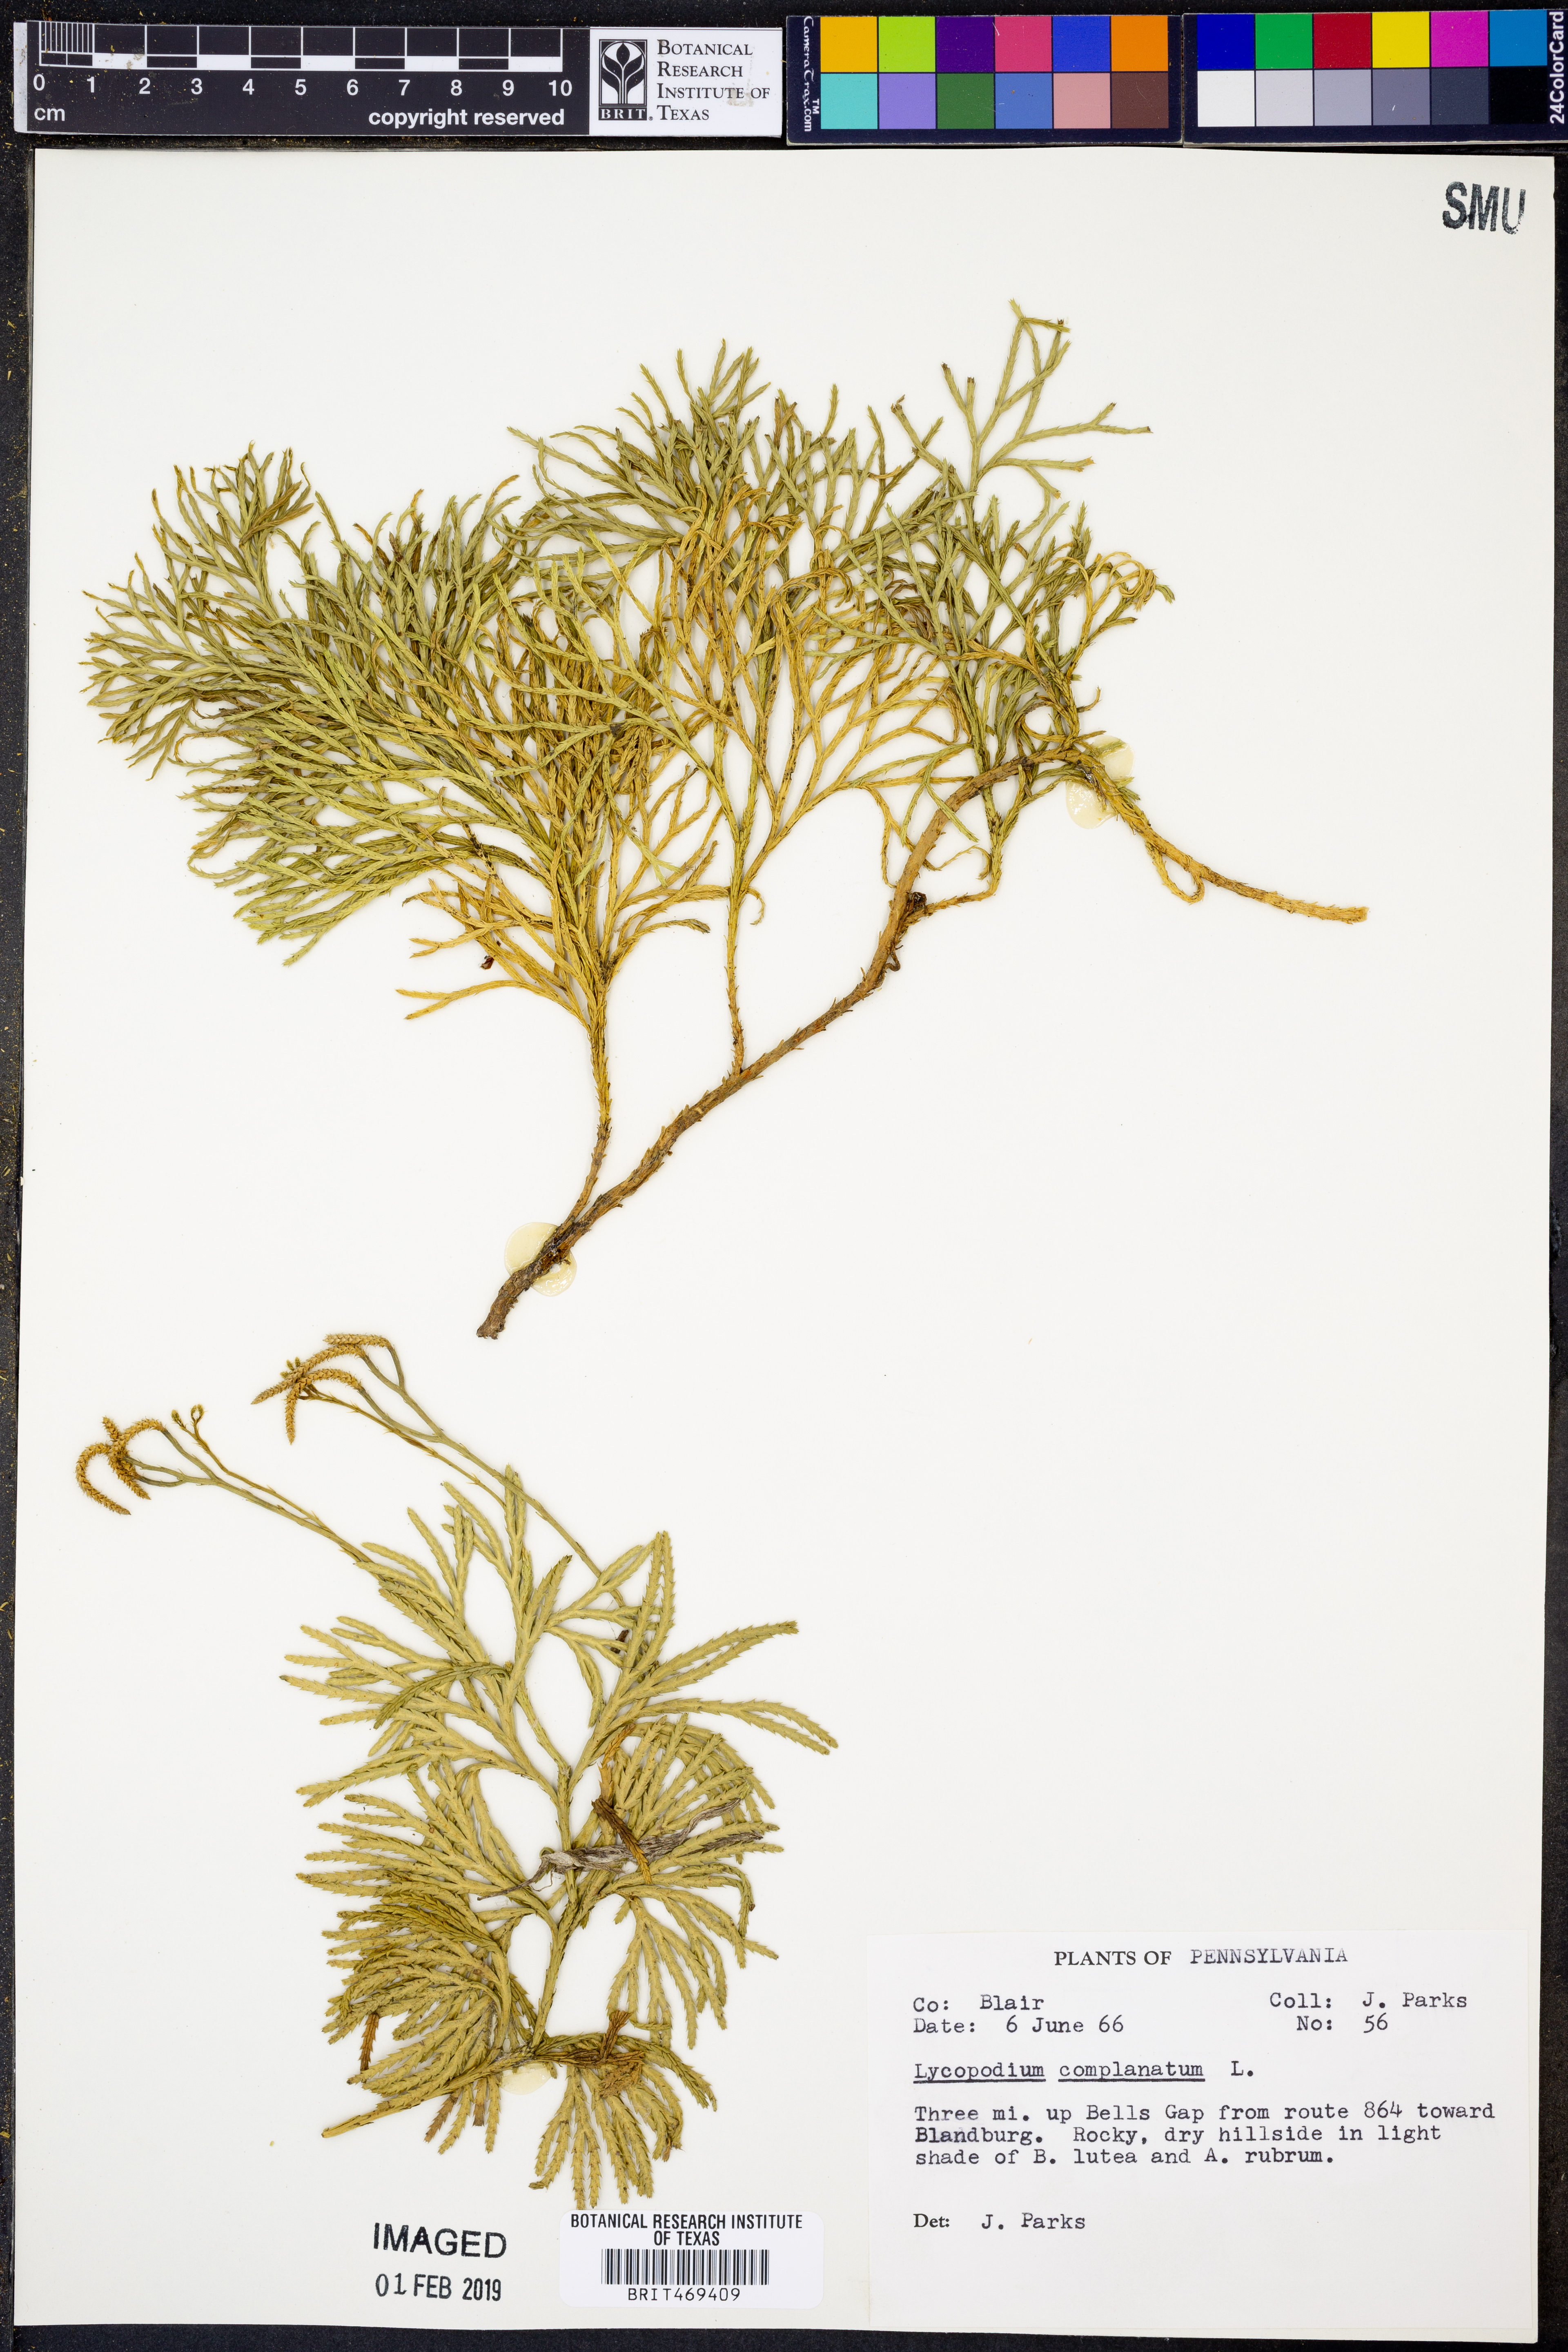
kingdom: Plantae
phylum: Tracheophyta
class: Lycopodiopsida
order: Lycopodiales
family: Lycopodiaceae
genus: Diphasiastrum
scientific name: Diphasiastrum complanatum
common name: Northern running-pine
